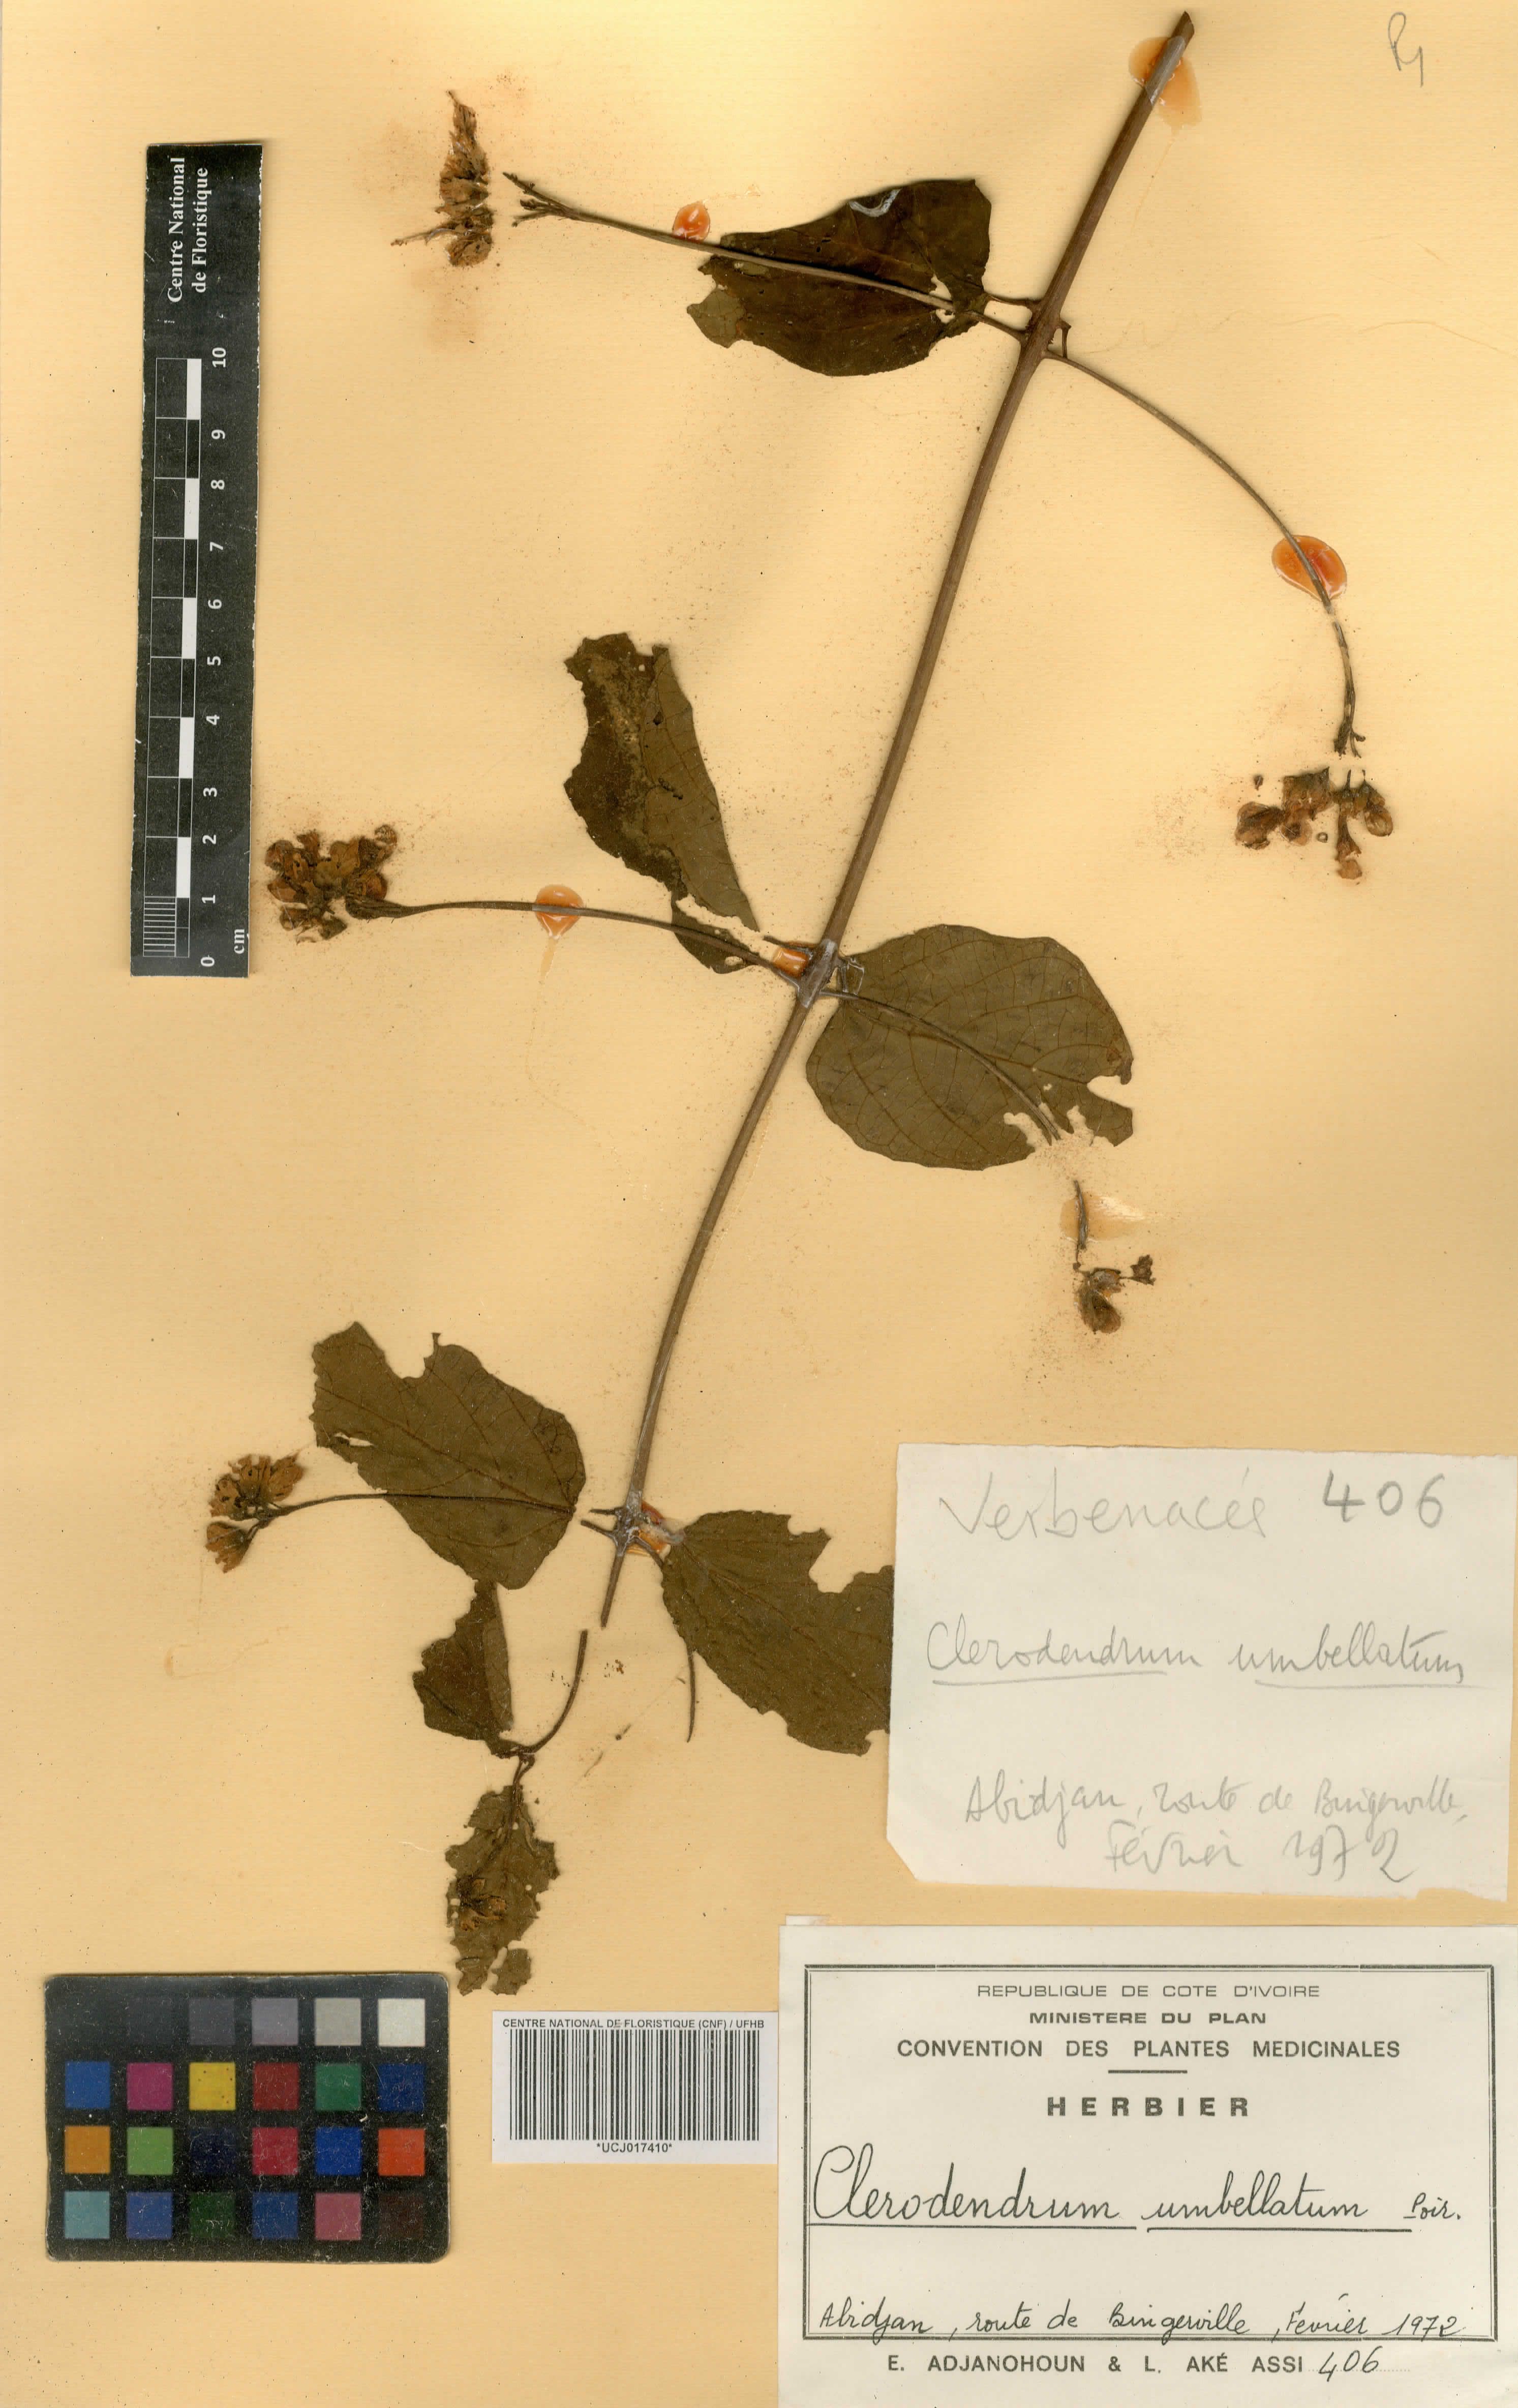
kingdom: Plantae
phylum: Tracheophyta
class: Magnoliopsida
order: Lamiales
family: Lamiaceae
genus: Clerodendrum
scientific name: Clerodendrum umbellatum
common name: Umbel clerodendrum
